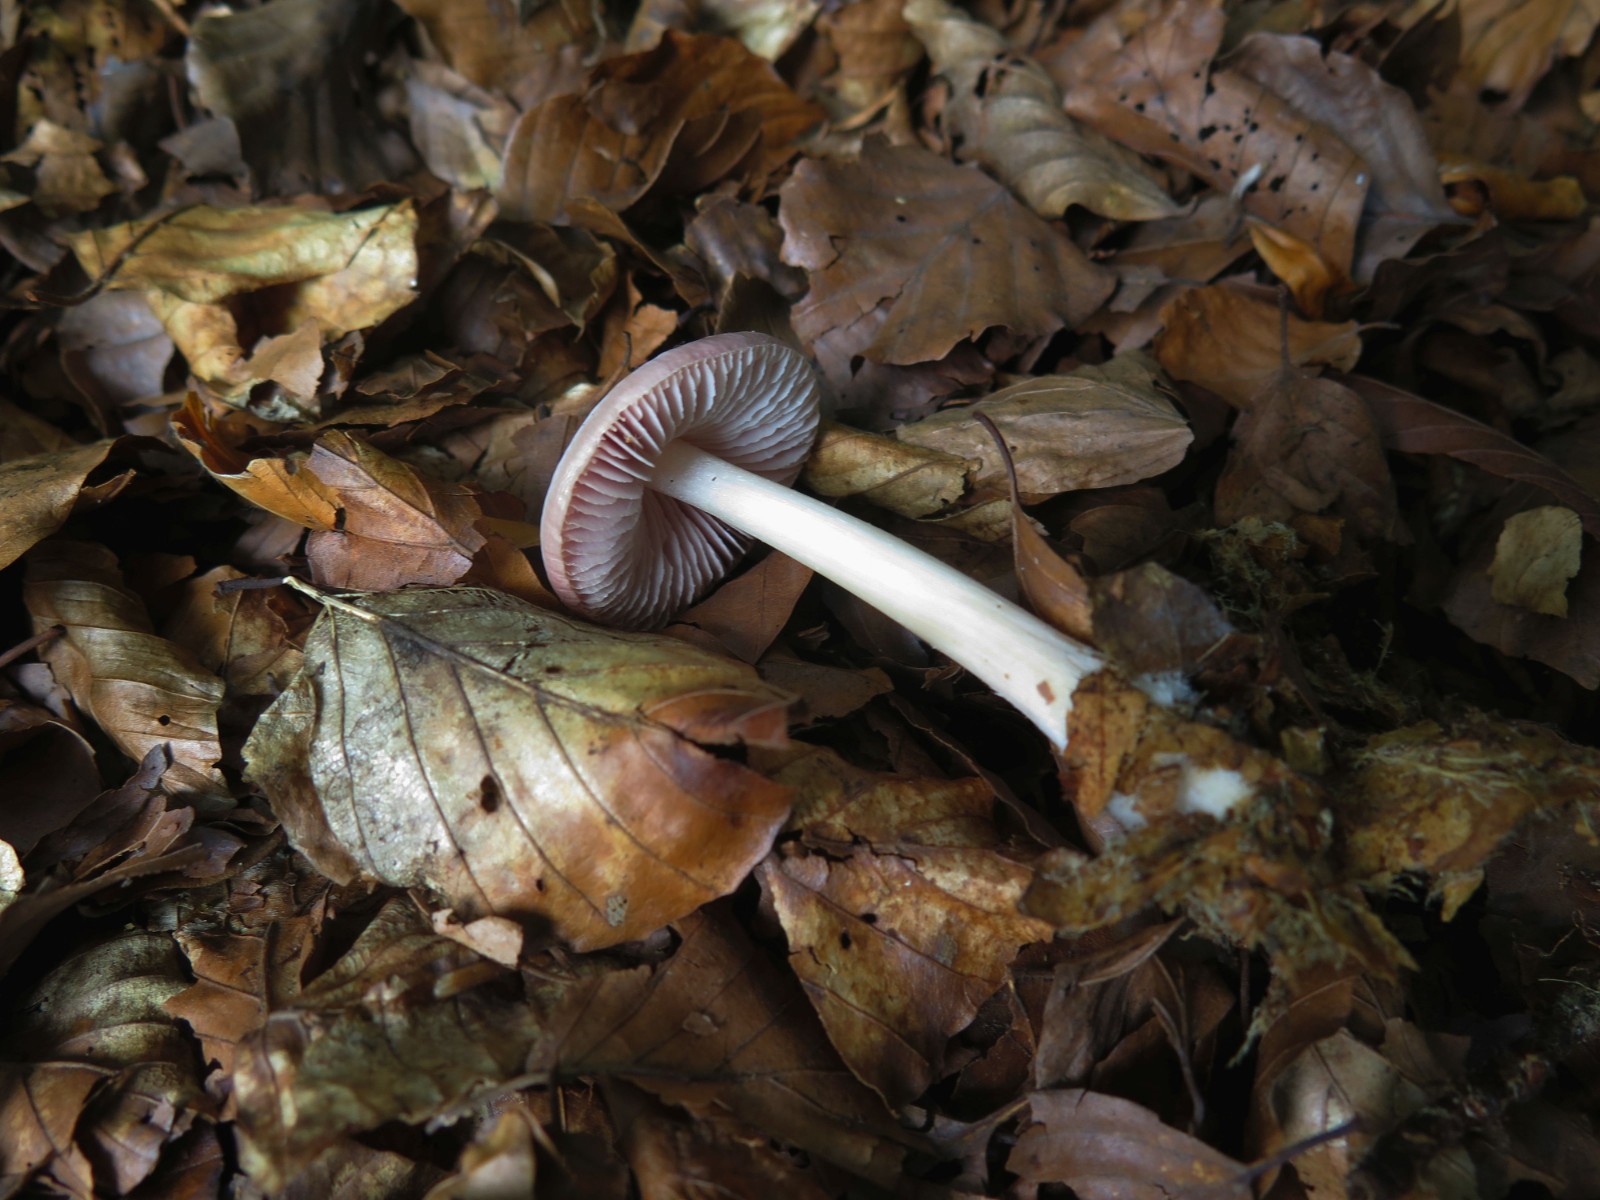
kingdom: Fungi
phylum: Basidiomycota
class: Agaricomycetes
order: Agaricales
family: Mycenaceae
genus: Mycena
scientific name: Mycena rosea
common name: rosa huesvamp
